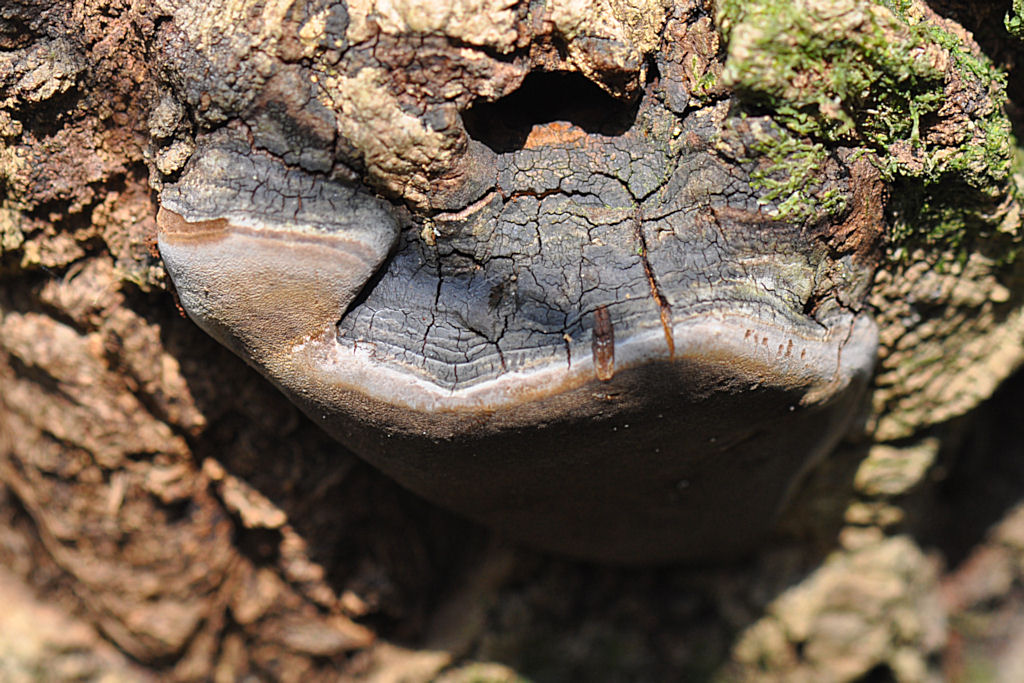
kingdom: Fungi
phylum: Basidiomycota
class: Agaricomycetes
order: Hymenochaetales
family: Hymenochaetaceae
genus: Phellinus
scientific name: Phellinus tremulae
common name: aspe-ildporesvamp
